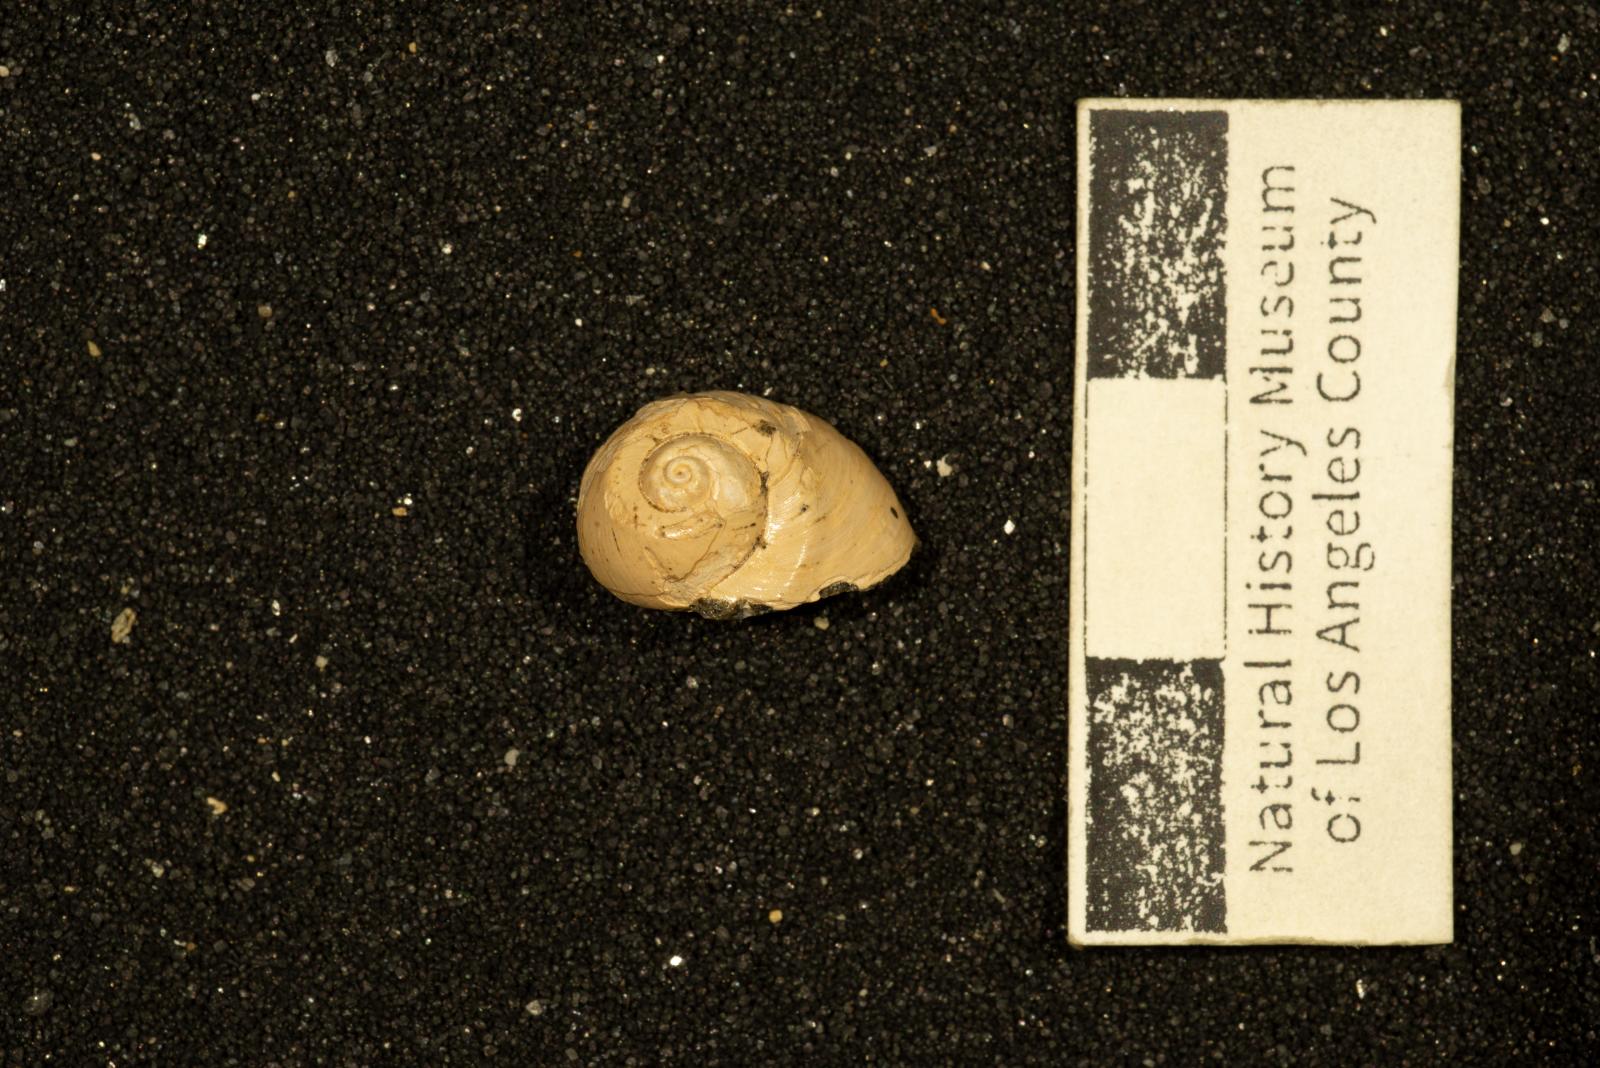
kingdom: Animalia
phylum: Mollusca
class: Gastropoda
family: Gyrodidae
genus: Gyrodes
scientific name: Gyrodes quercus
